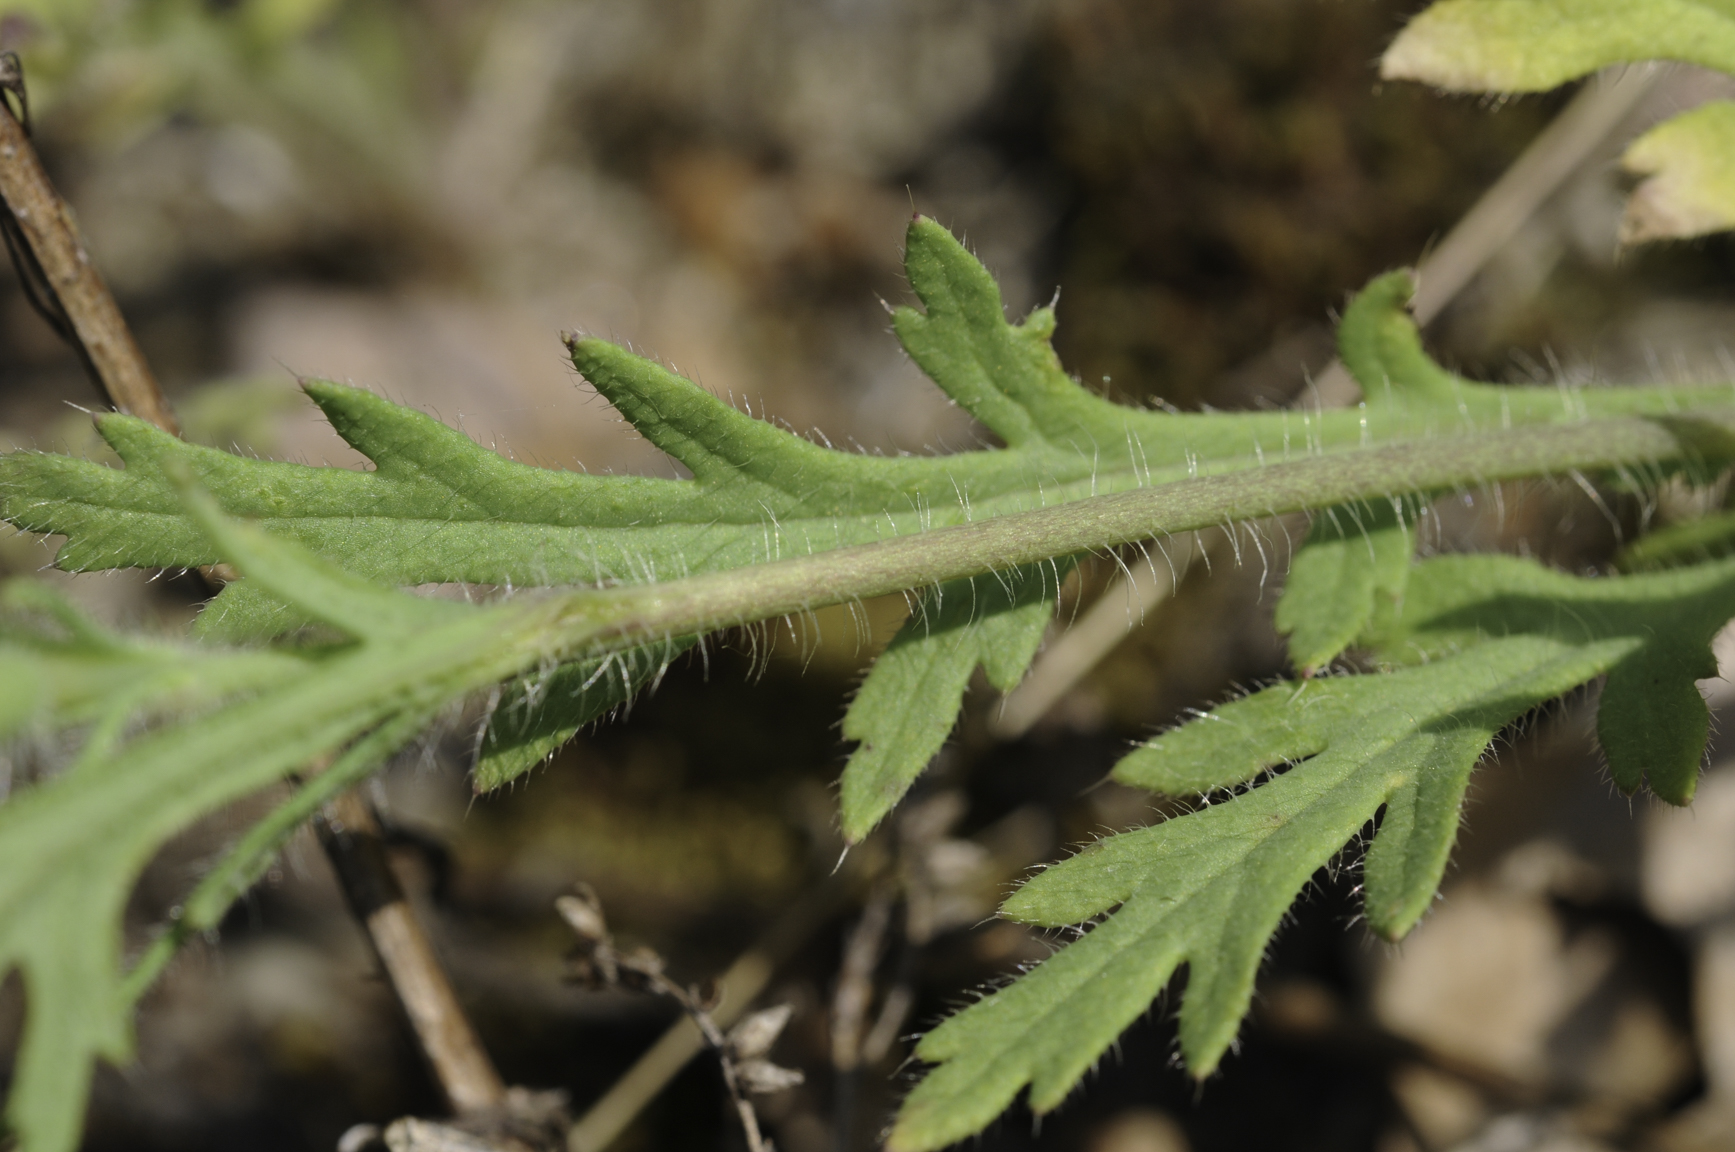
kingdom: Plantae
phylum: Tracheophyta
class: Magnoliopsida
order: Ranunculales
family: Papaveraceae
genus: Papaver
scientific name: Papaver dubium
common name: Long-headed poppy
